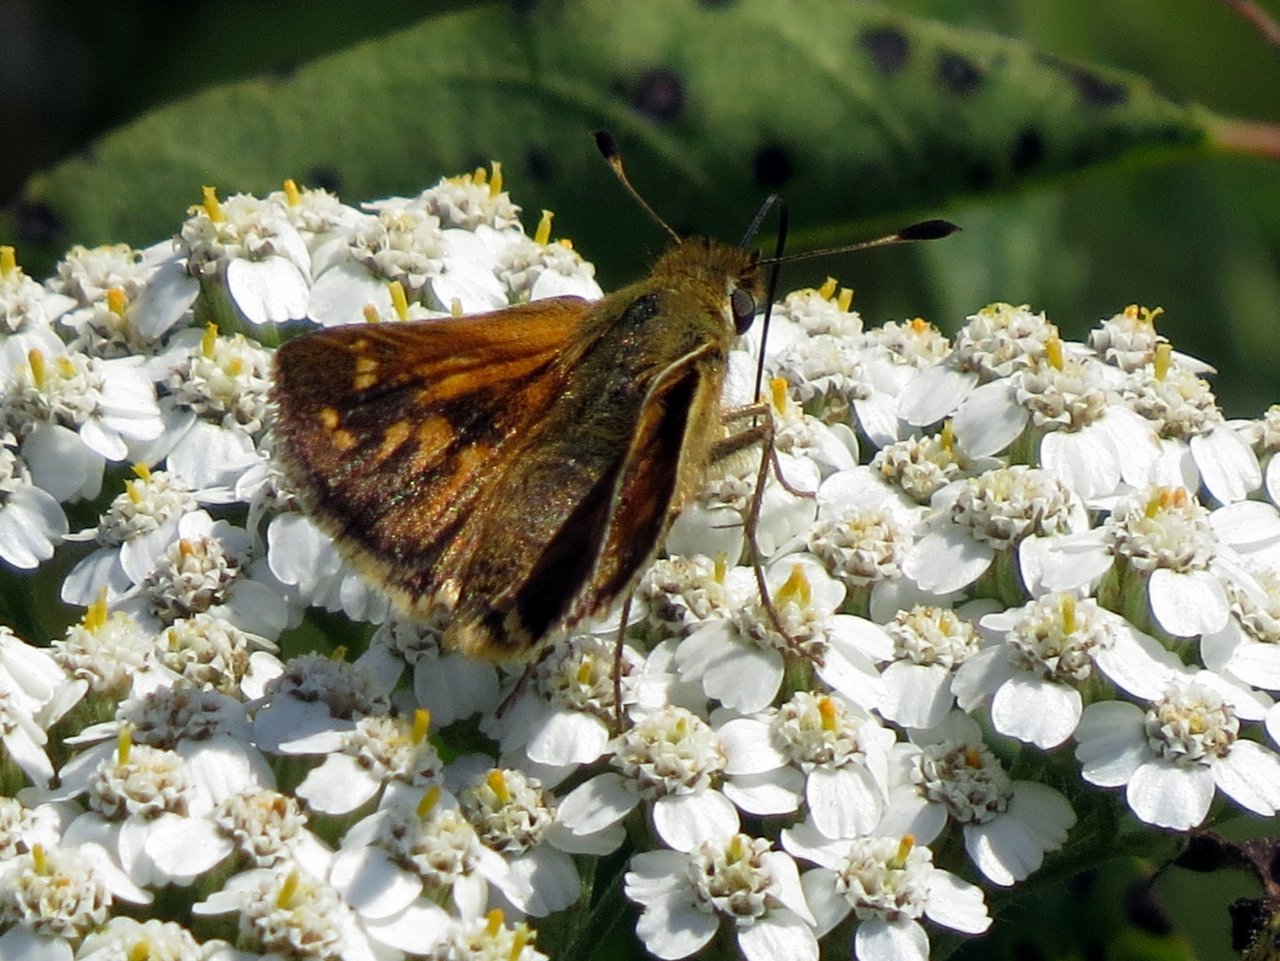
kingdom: Animalia
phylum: Arthropoda
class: Insecta
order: Lepidoptera
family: Hesperiidae
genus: Hesperia
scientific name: Hesperia comma
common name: Common Branded Skipper
